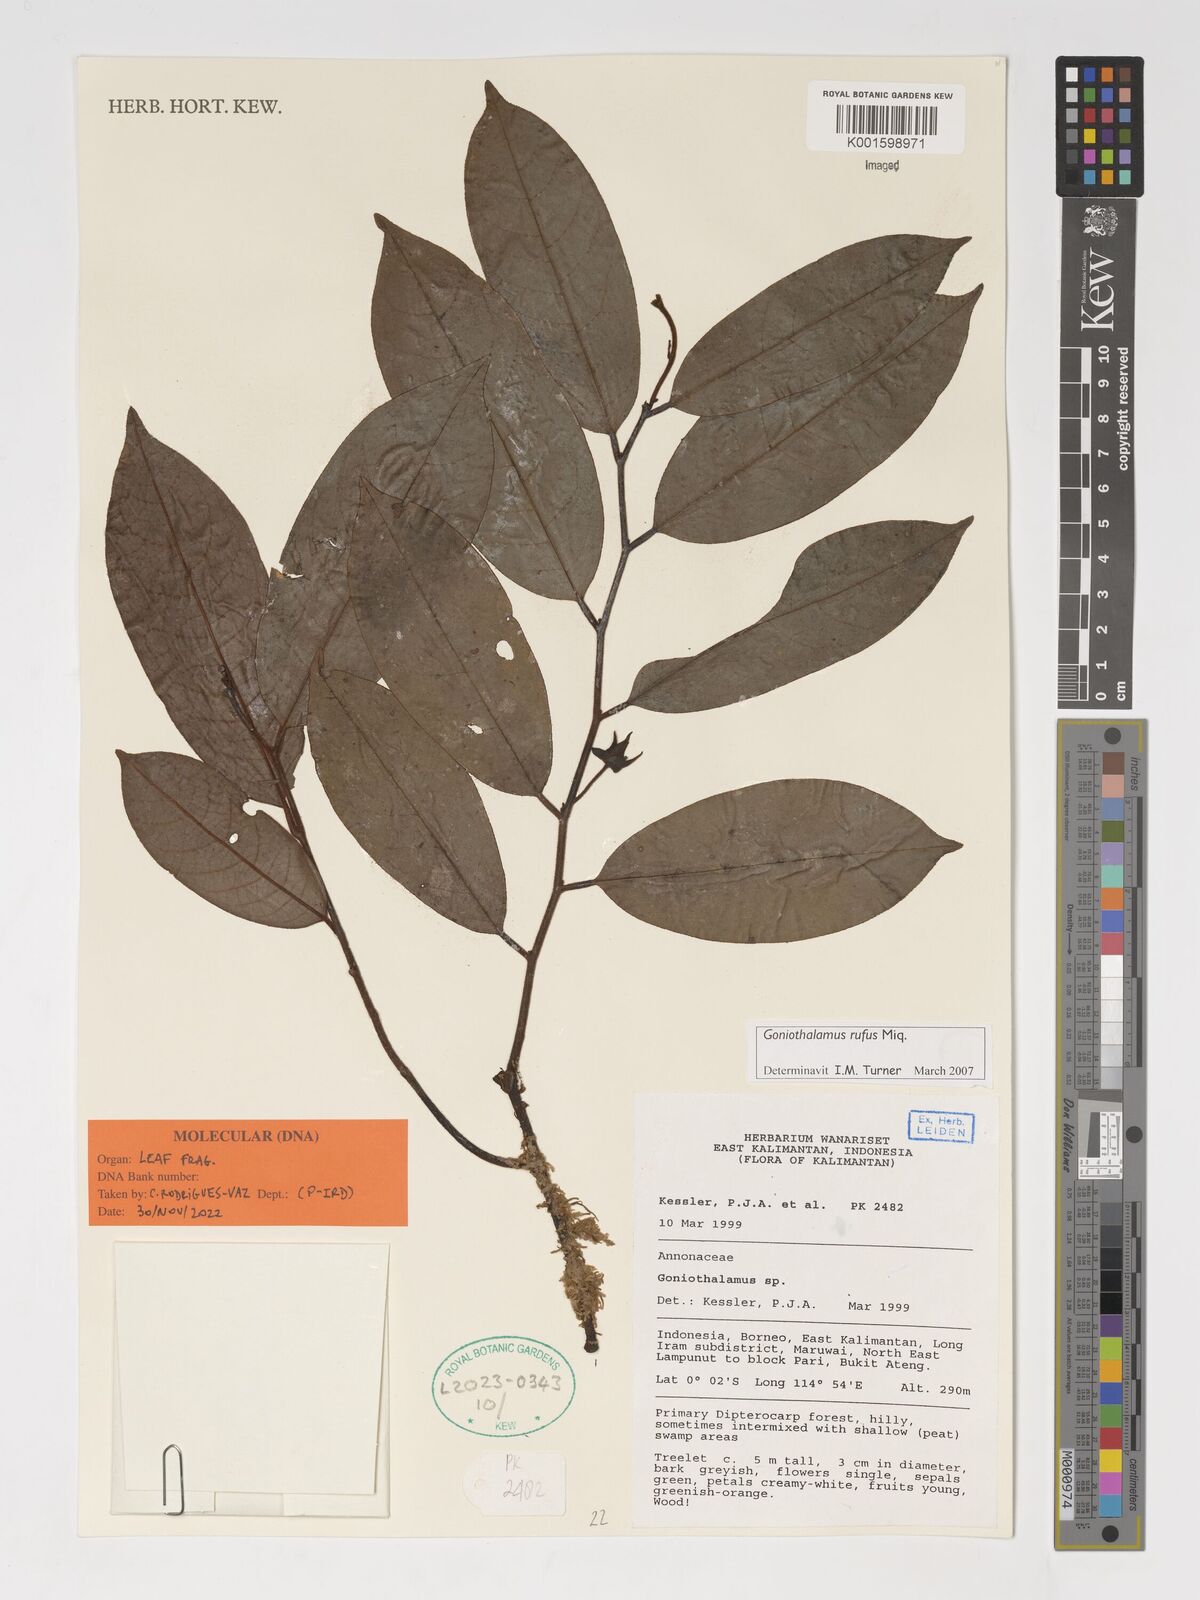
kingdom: Plantae
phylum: Tracheophyta
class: Magnoliopsida
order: Magnoliales
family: Annonaceae
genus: Goniothalamus
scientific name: Goniothalamus rufus
